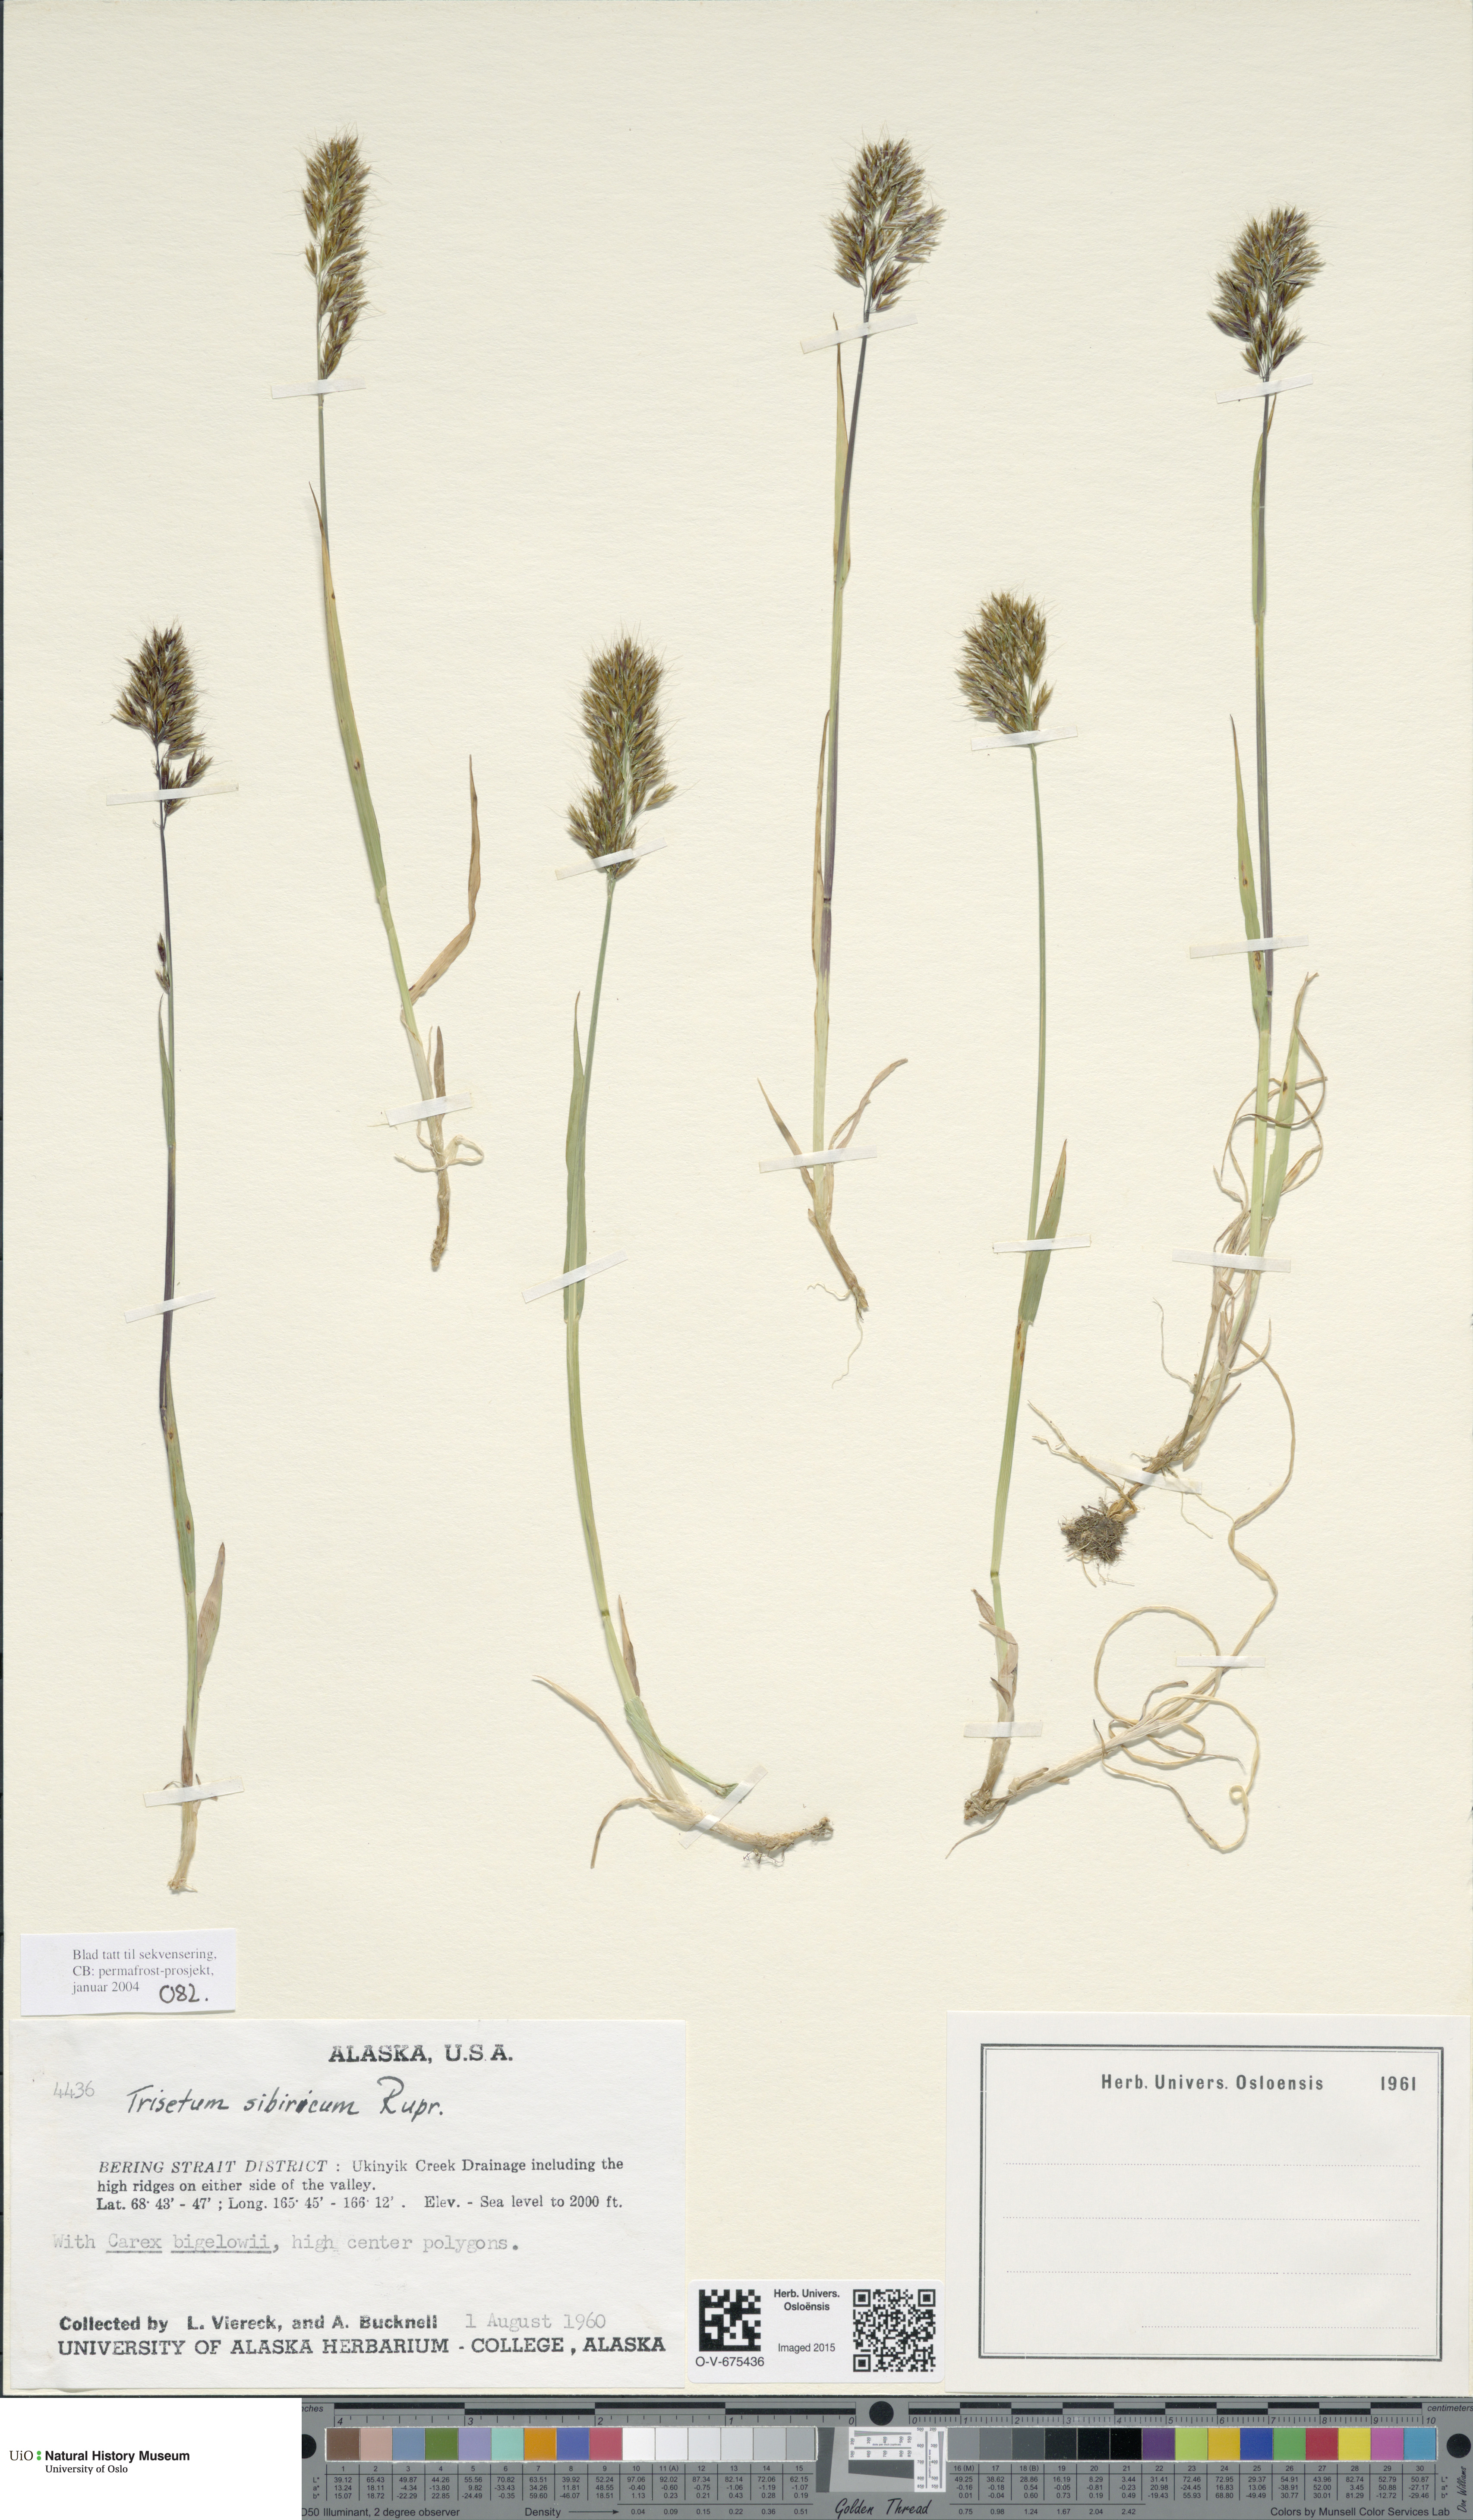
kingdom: Plantae
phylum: Tracheophyta
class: Liliopsida
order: Poales
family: Poaceae
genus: Sibirotrisetum
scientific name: Sibirotrisetum sibiricum
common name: Siberian false oat
